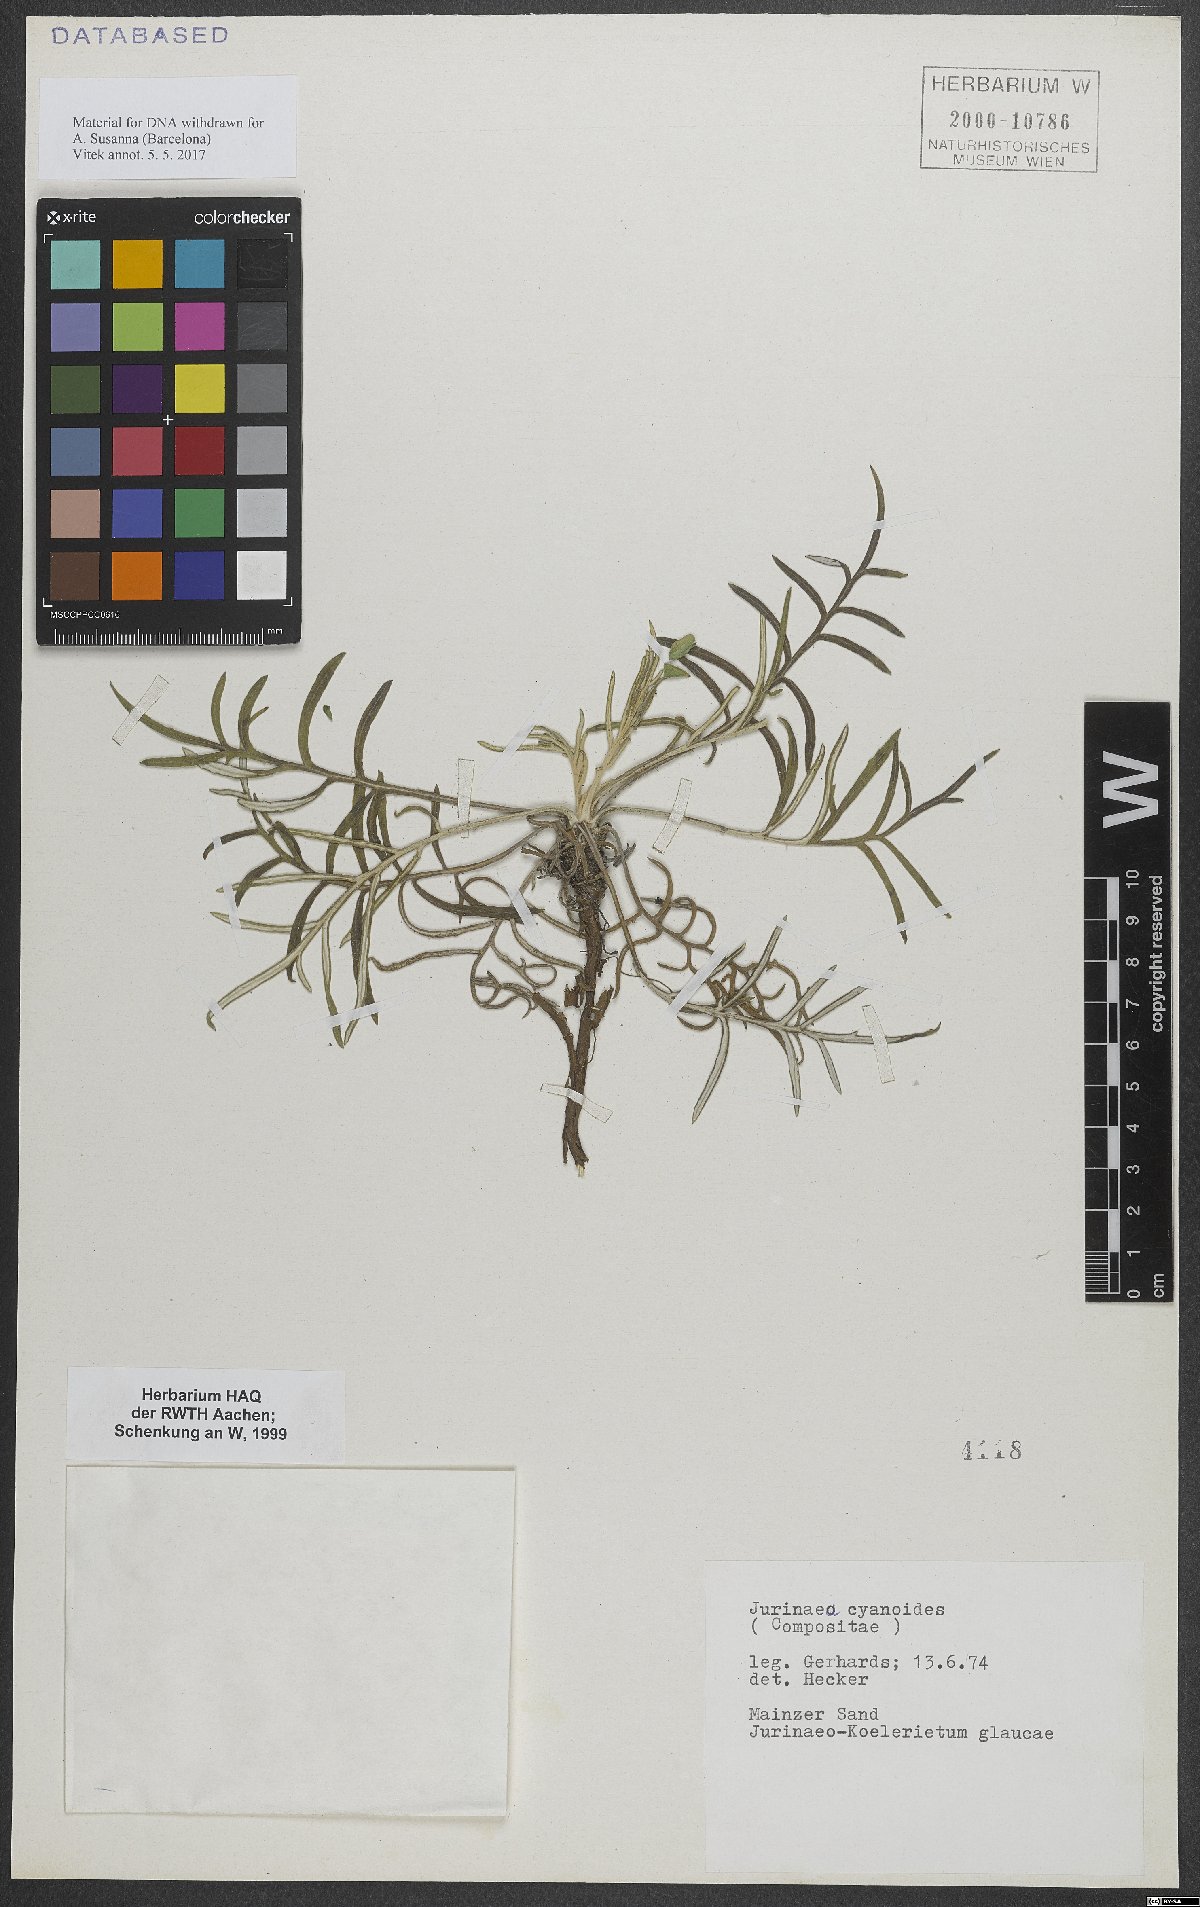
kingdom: Plantae
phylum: Tracheophyta
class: Magnoliopsida
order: Asterales
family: Asteraceae
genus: Jurinea
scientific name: Jurinea cyanoides
